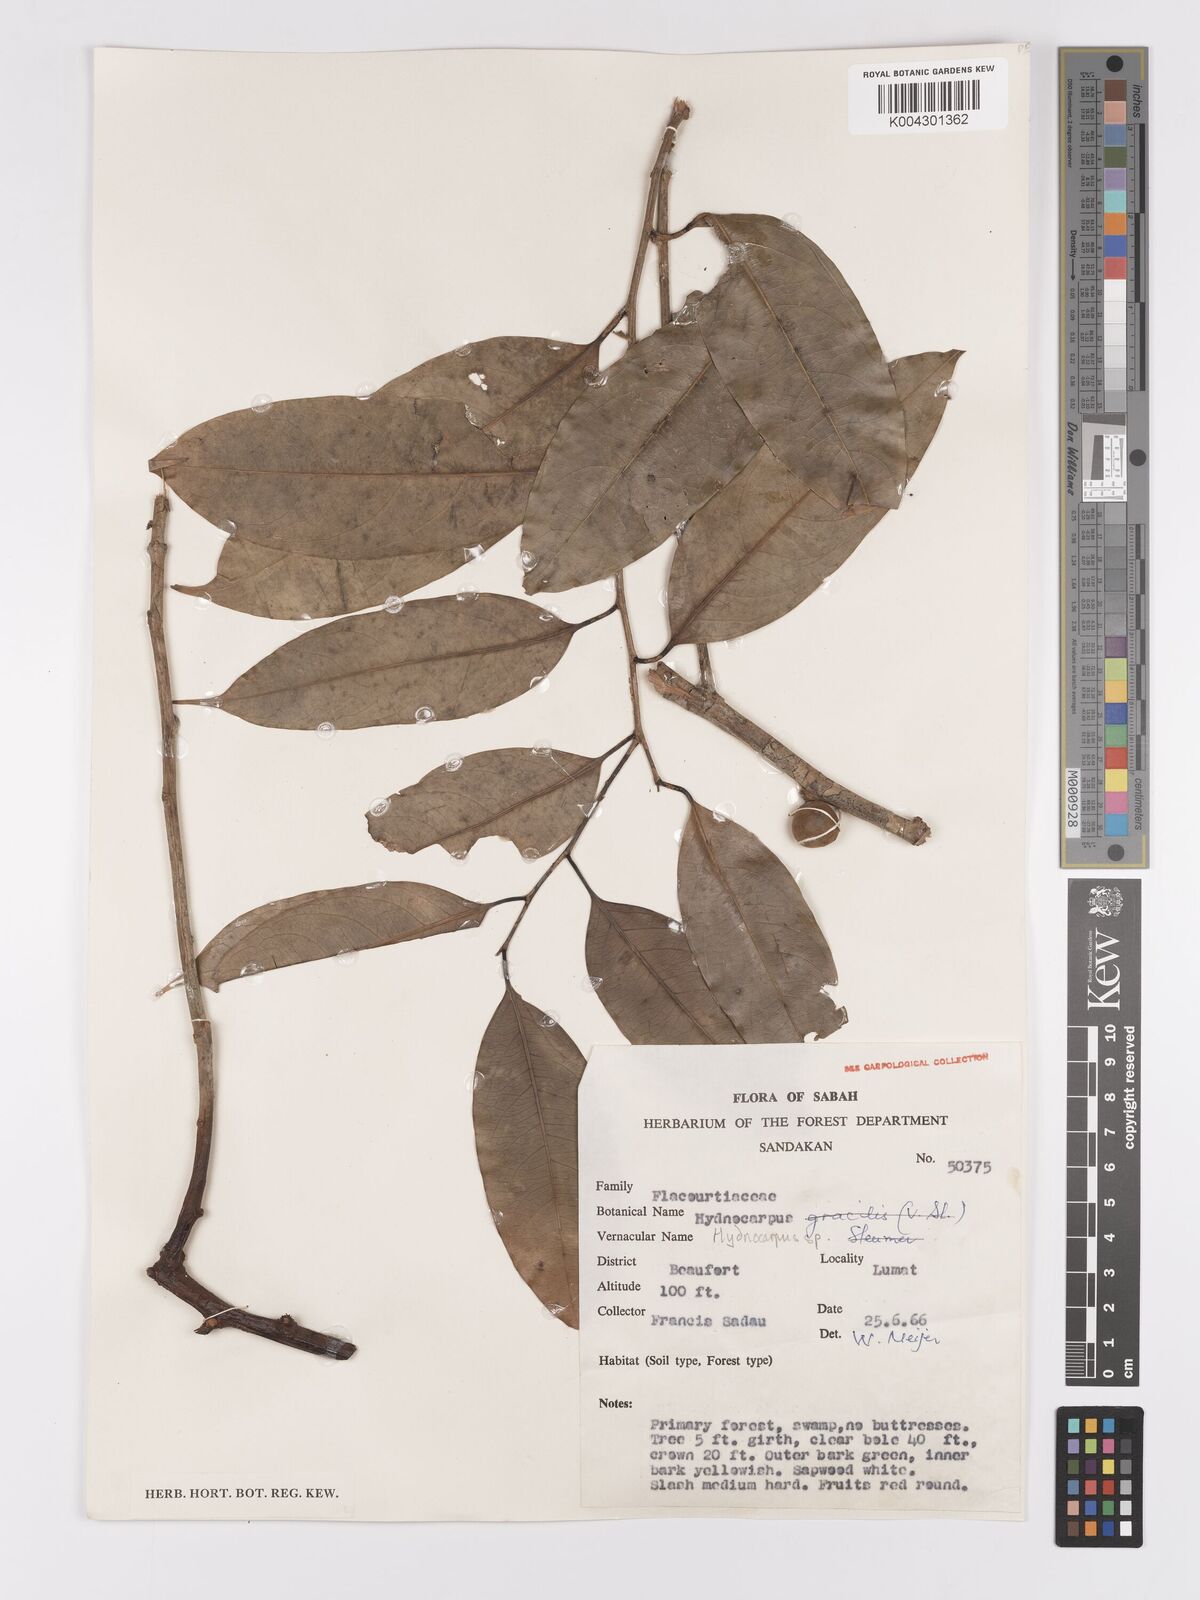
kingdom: Plantae
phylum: Tracheophyta
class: Magnoliopsida
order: Malpighiales
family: Achariaceae
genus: Hydnocarpus
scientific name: Hydnocarpus
